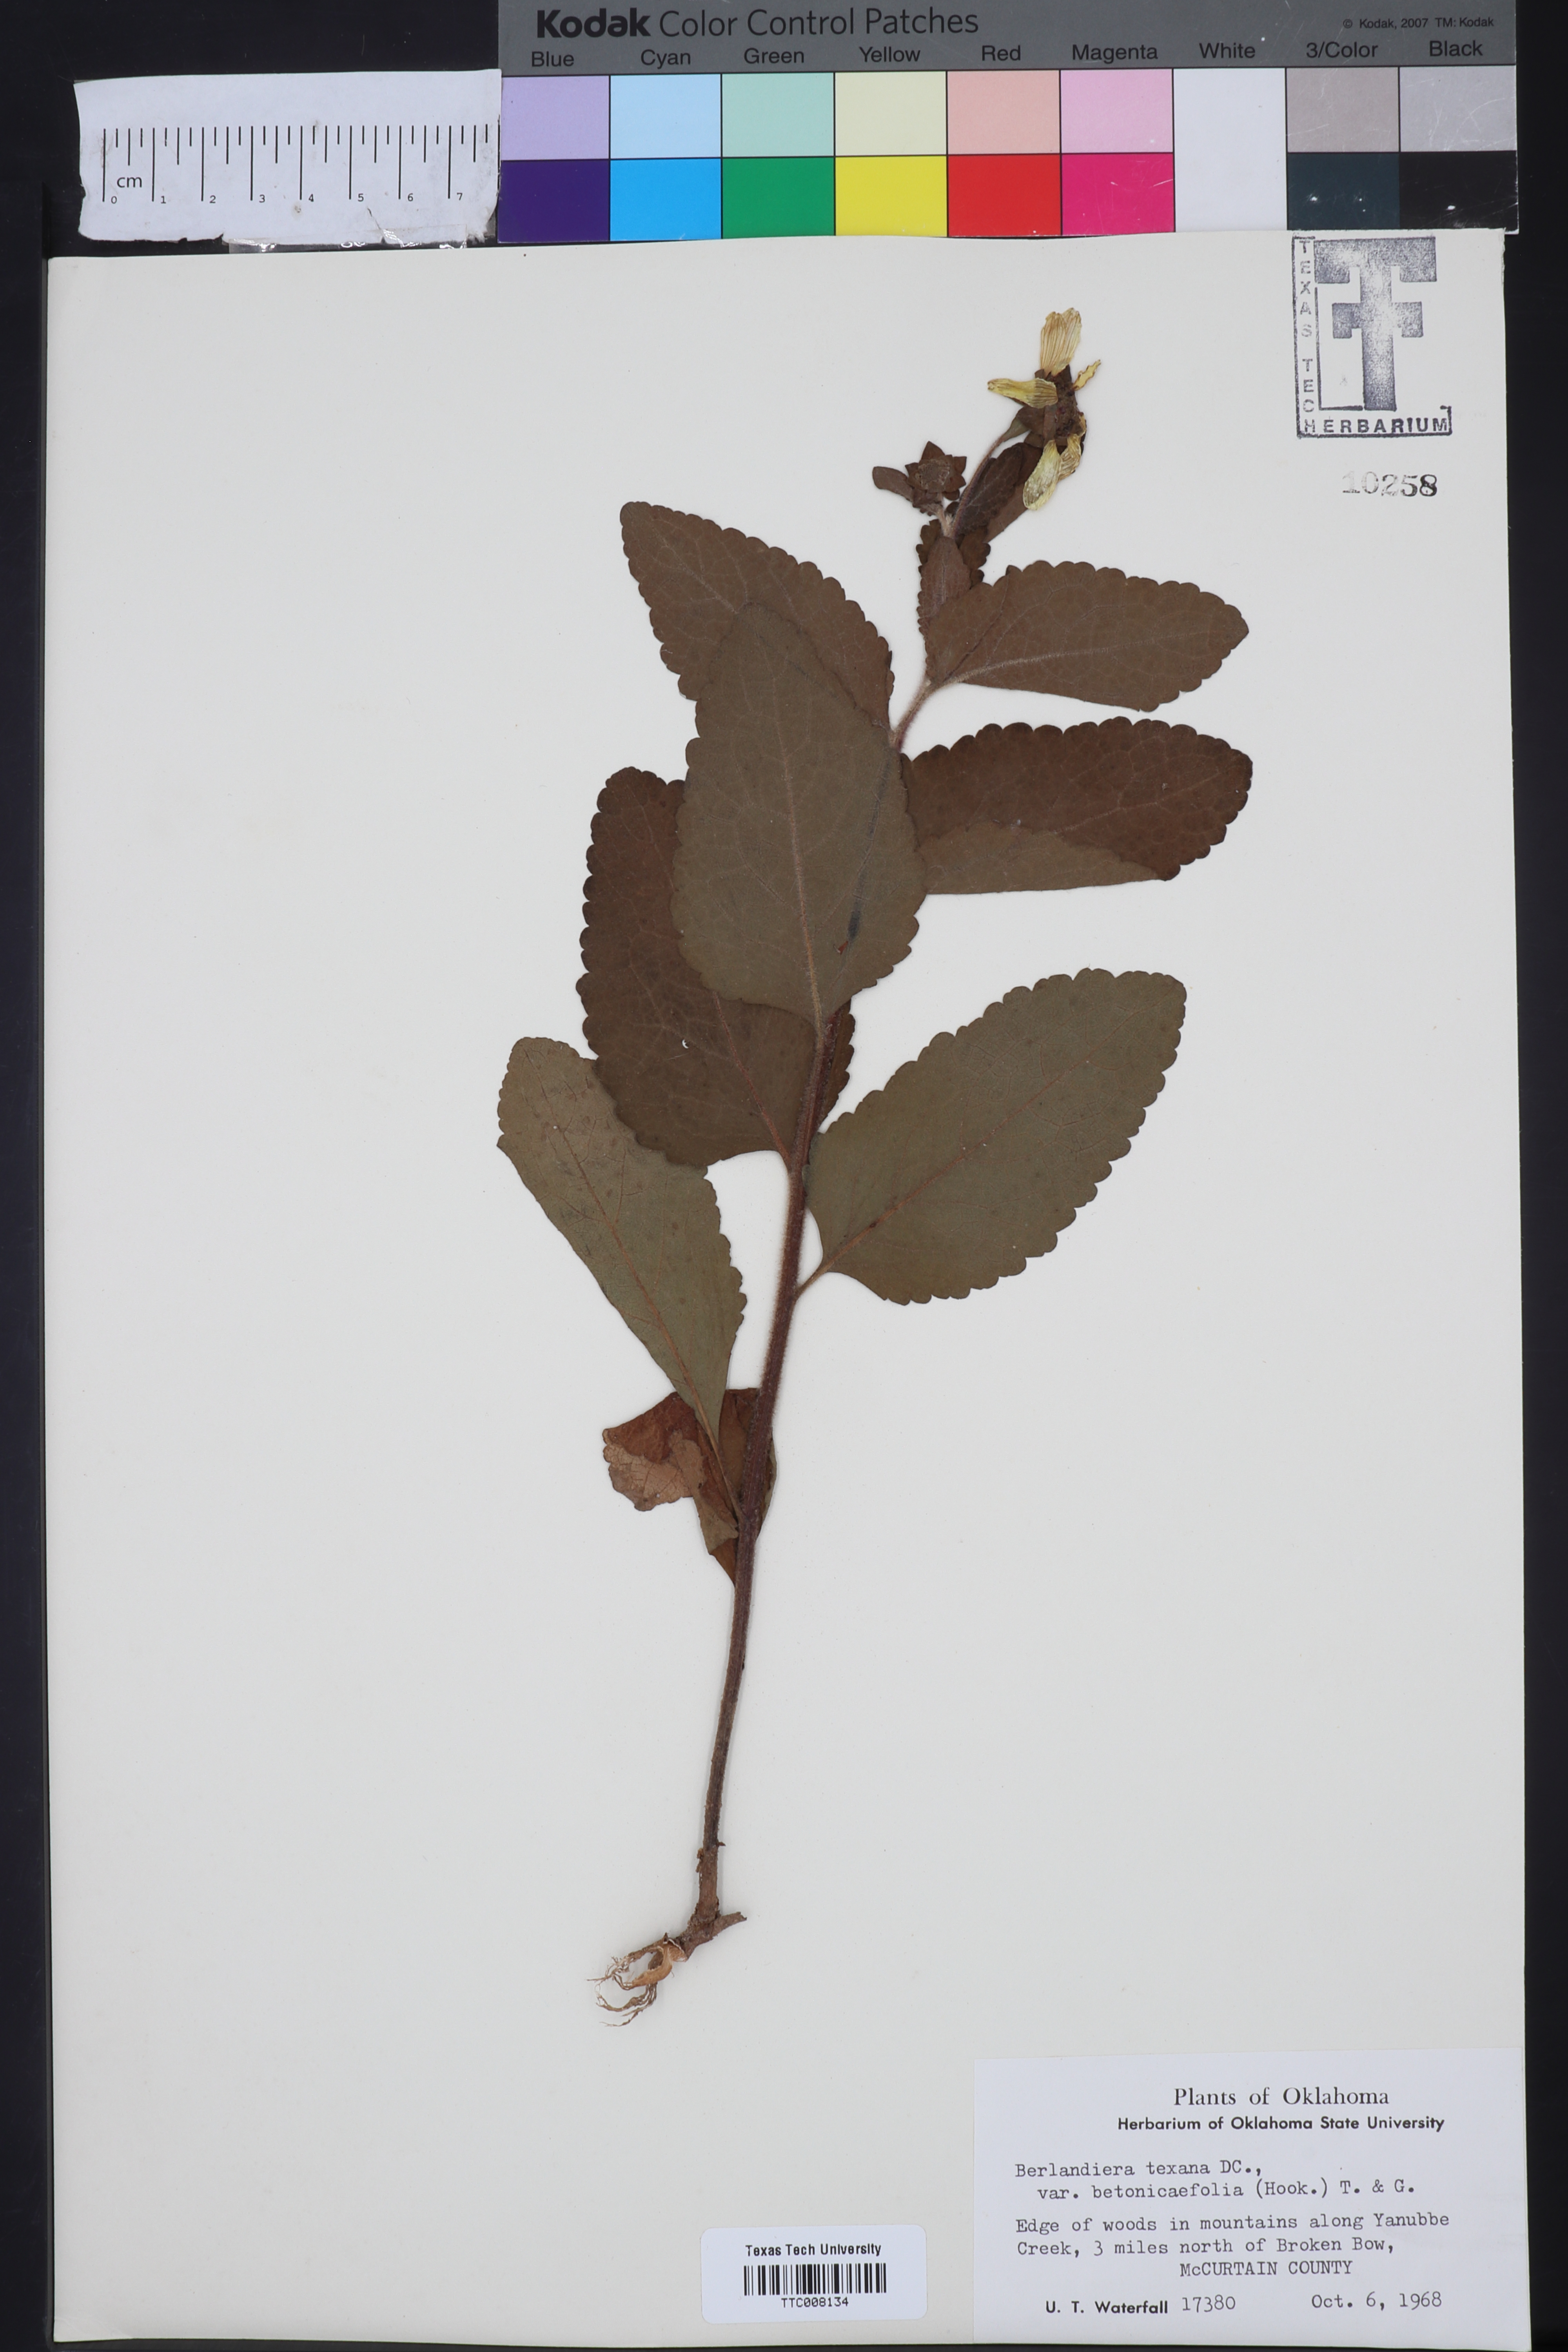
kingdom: Plantae
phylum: Tracheophyta
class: Magnoliopsida
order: Asterales
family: Asteraceae
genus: Berlandiera
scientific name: Berlandiera texana
